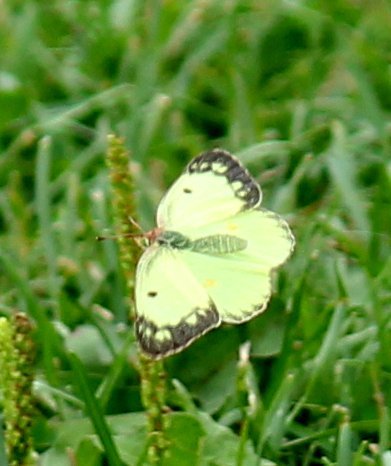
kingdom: Animalia
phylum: Arthropoda
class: Insecta
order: Lepidoptera
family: Pieridae
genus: Colias
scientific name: Colias philodice
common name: Clouded Sulphur
